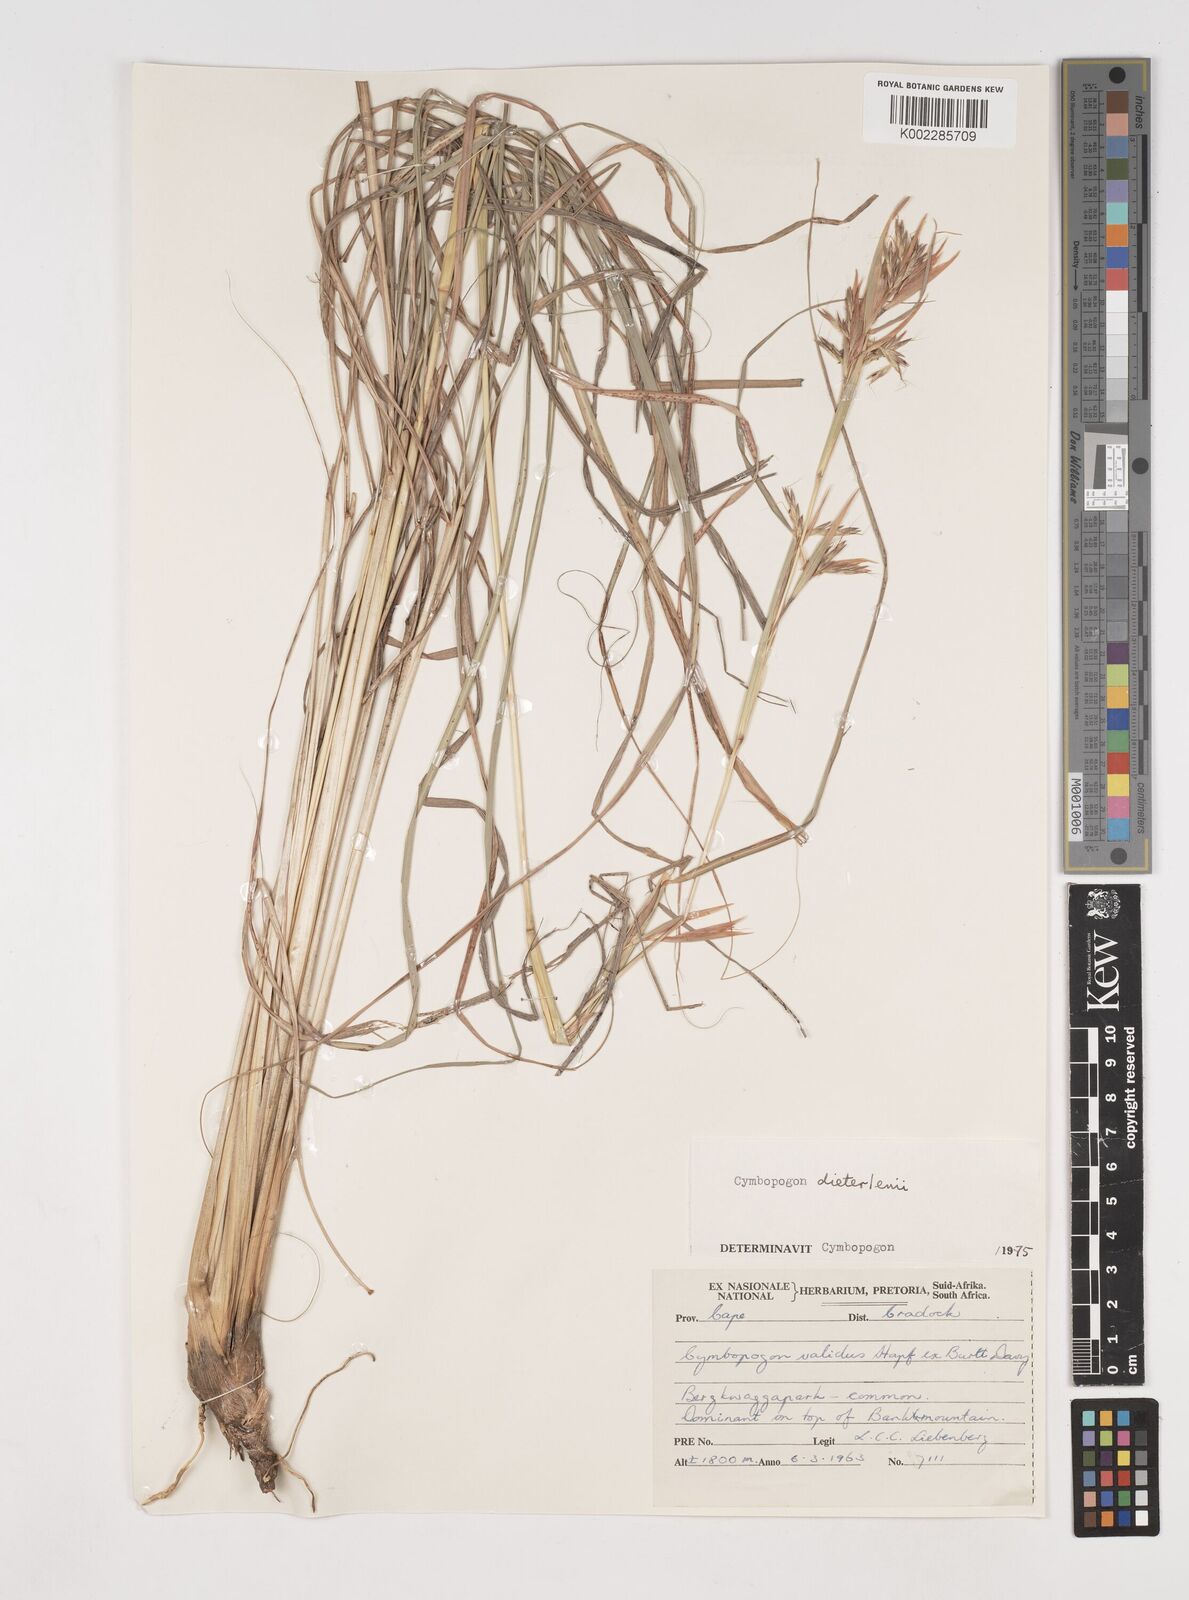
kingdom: Plantae
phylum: Tracheophyta
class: Liliopsida
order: Poales
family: Poaceae
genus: Cymbopogon
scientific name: Cymbopogon dieterlenii
